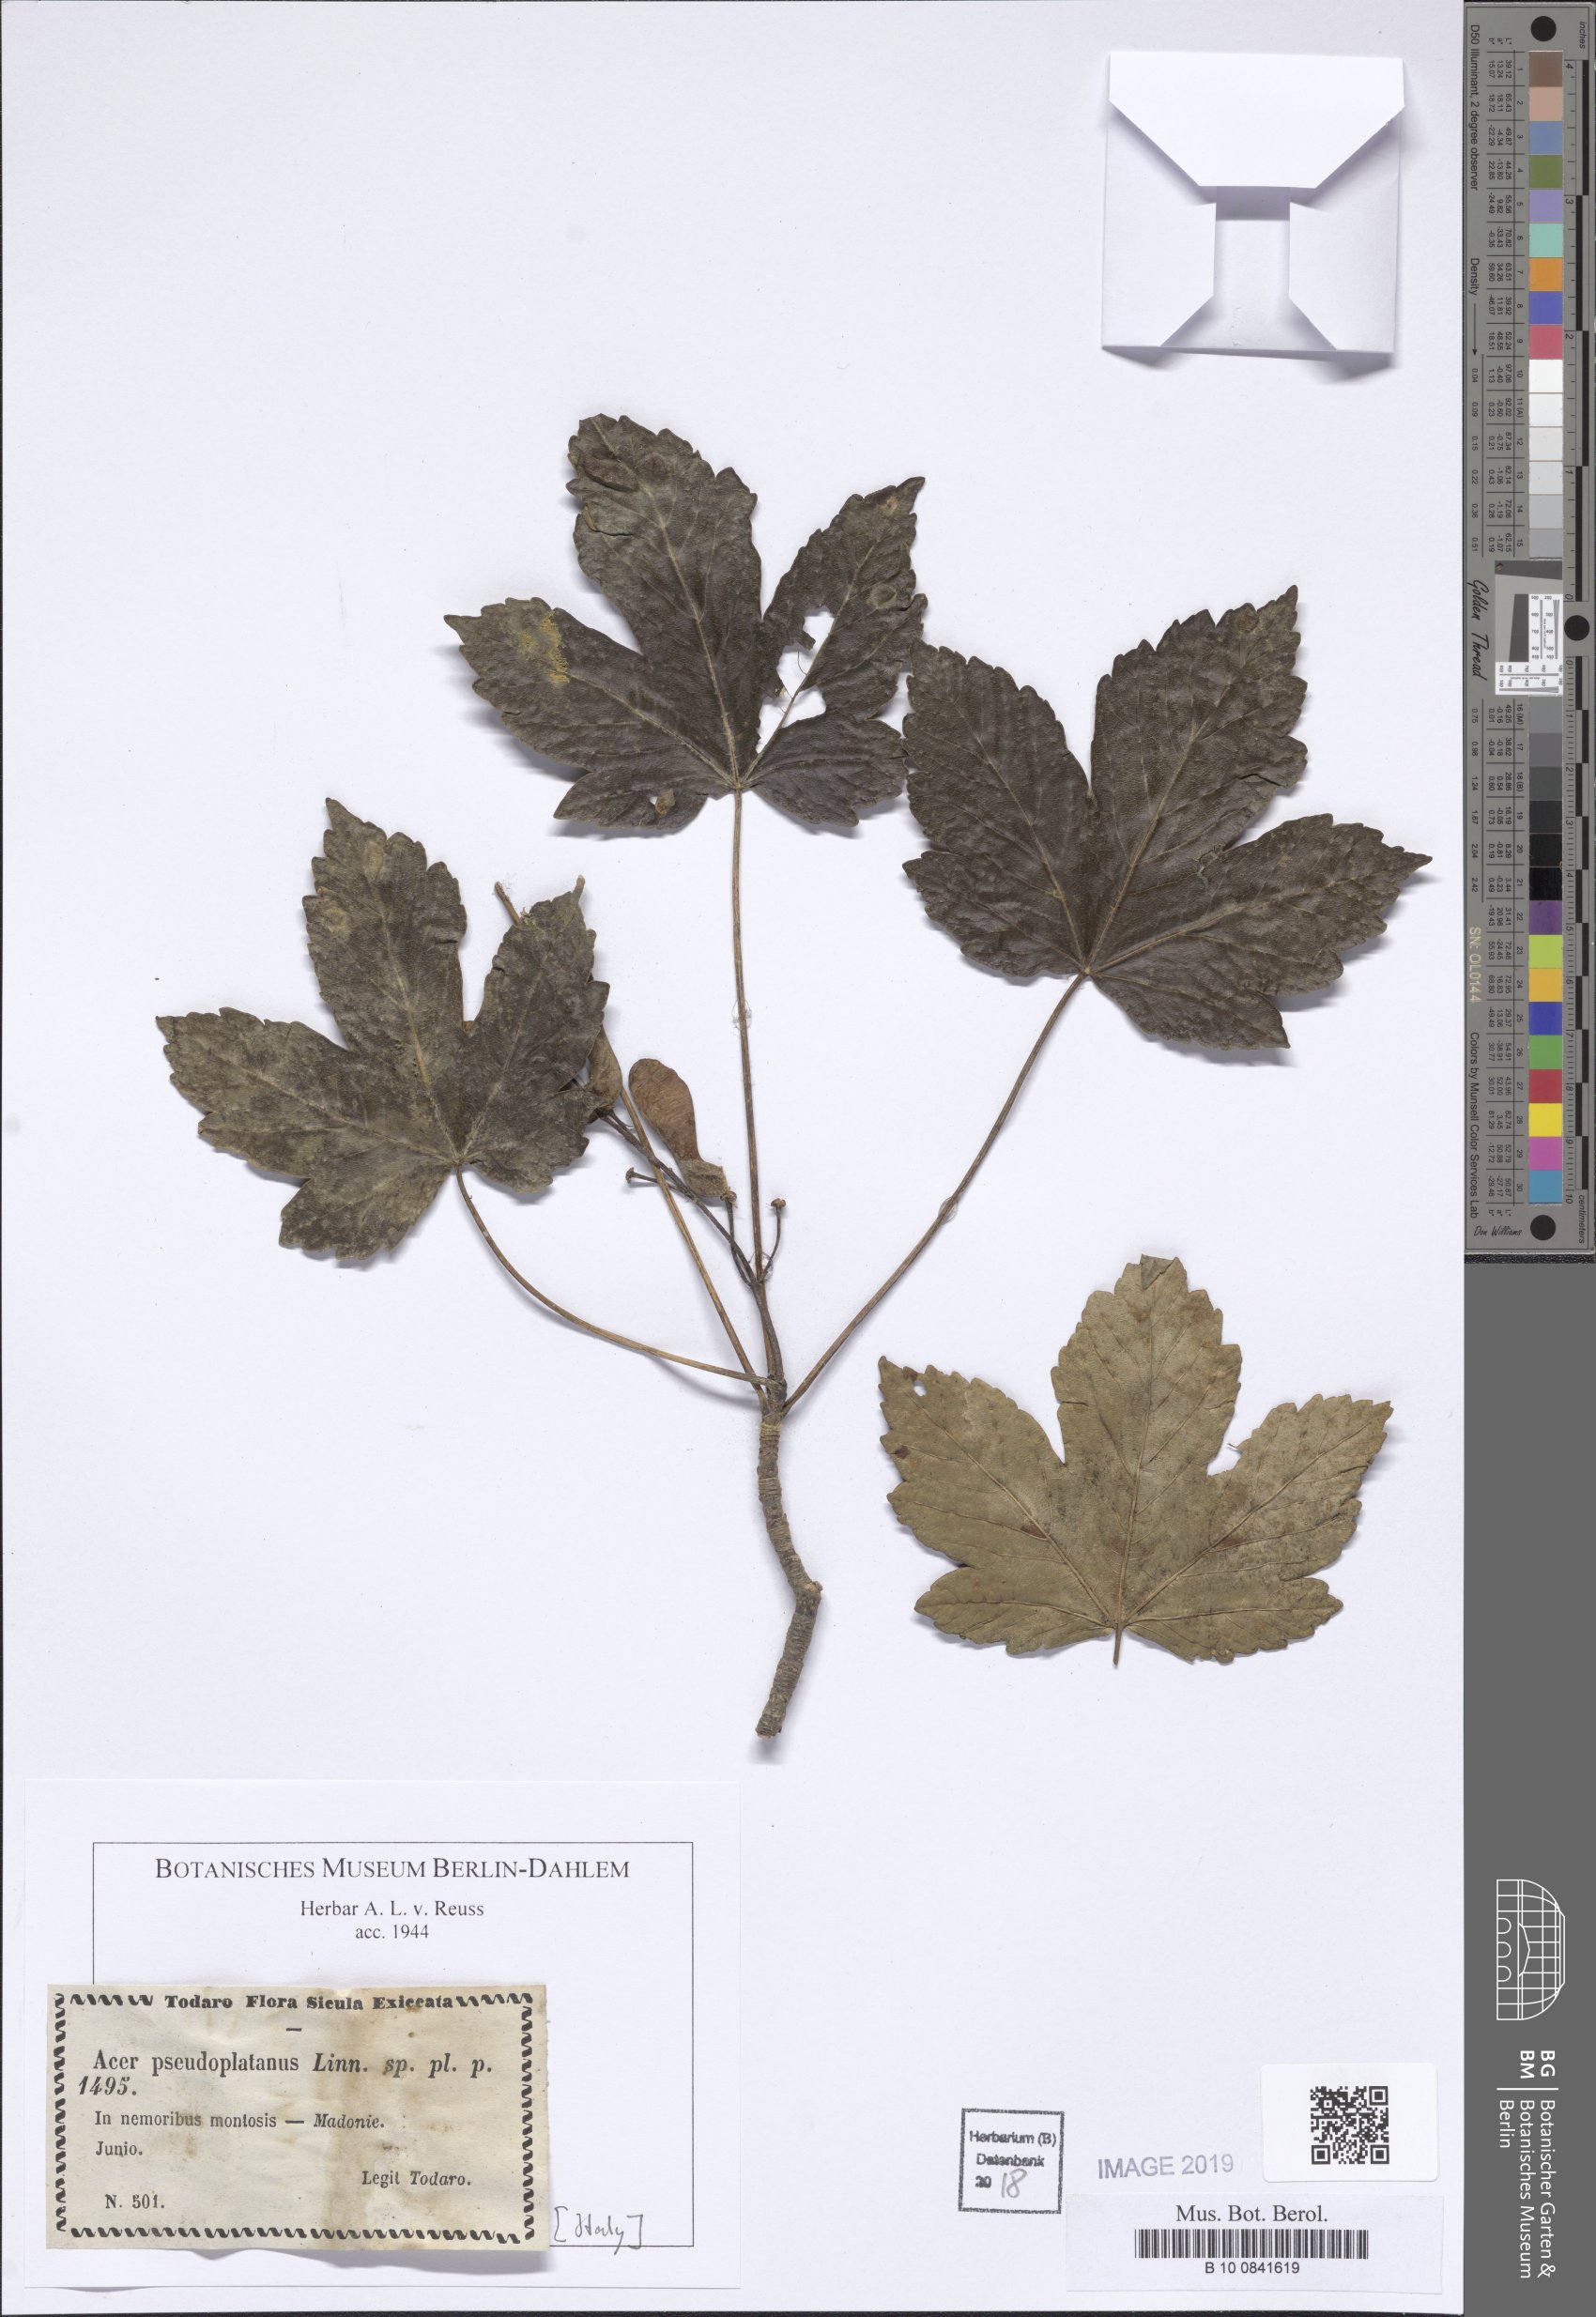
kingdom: Plantae
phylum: Tracheophyta
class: Magnoliopsida
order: Sapindales
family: Sapindaceae
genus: Acer
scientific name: Acer pseudoplatanus
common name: Sycamore
